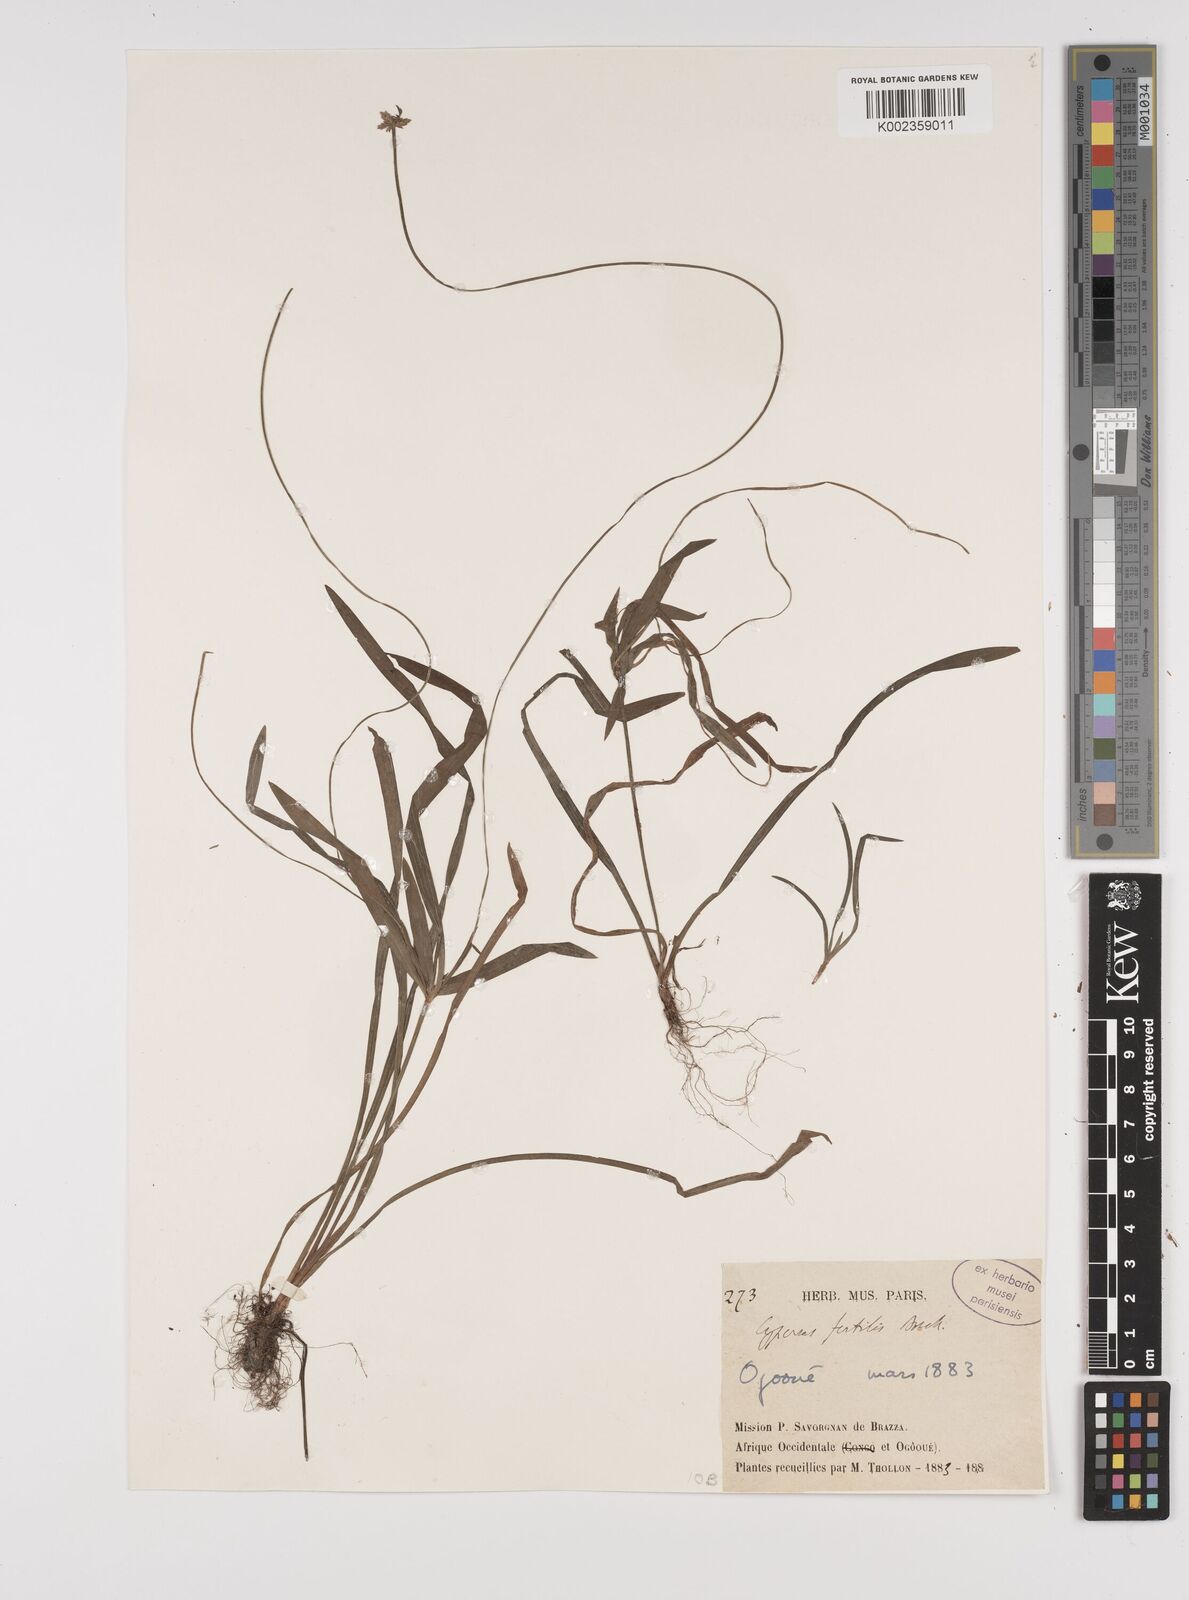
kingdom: Plantae
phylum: Tracheophyta
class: Liliopsida
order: Poales
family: Cyperaceae
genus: Cyperus
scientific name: Cyperus fertilis
